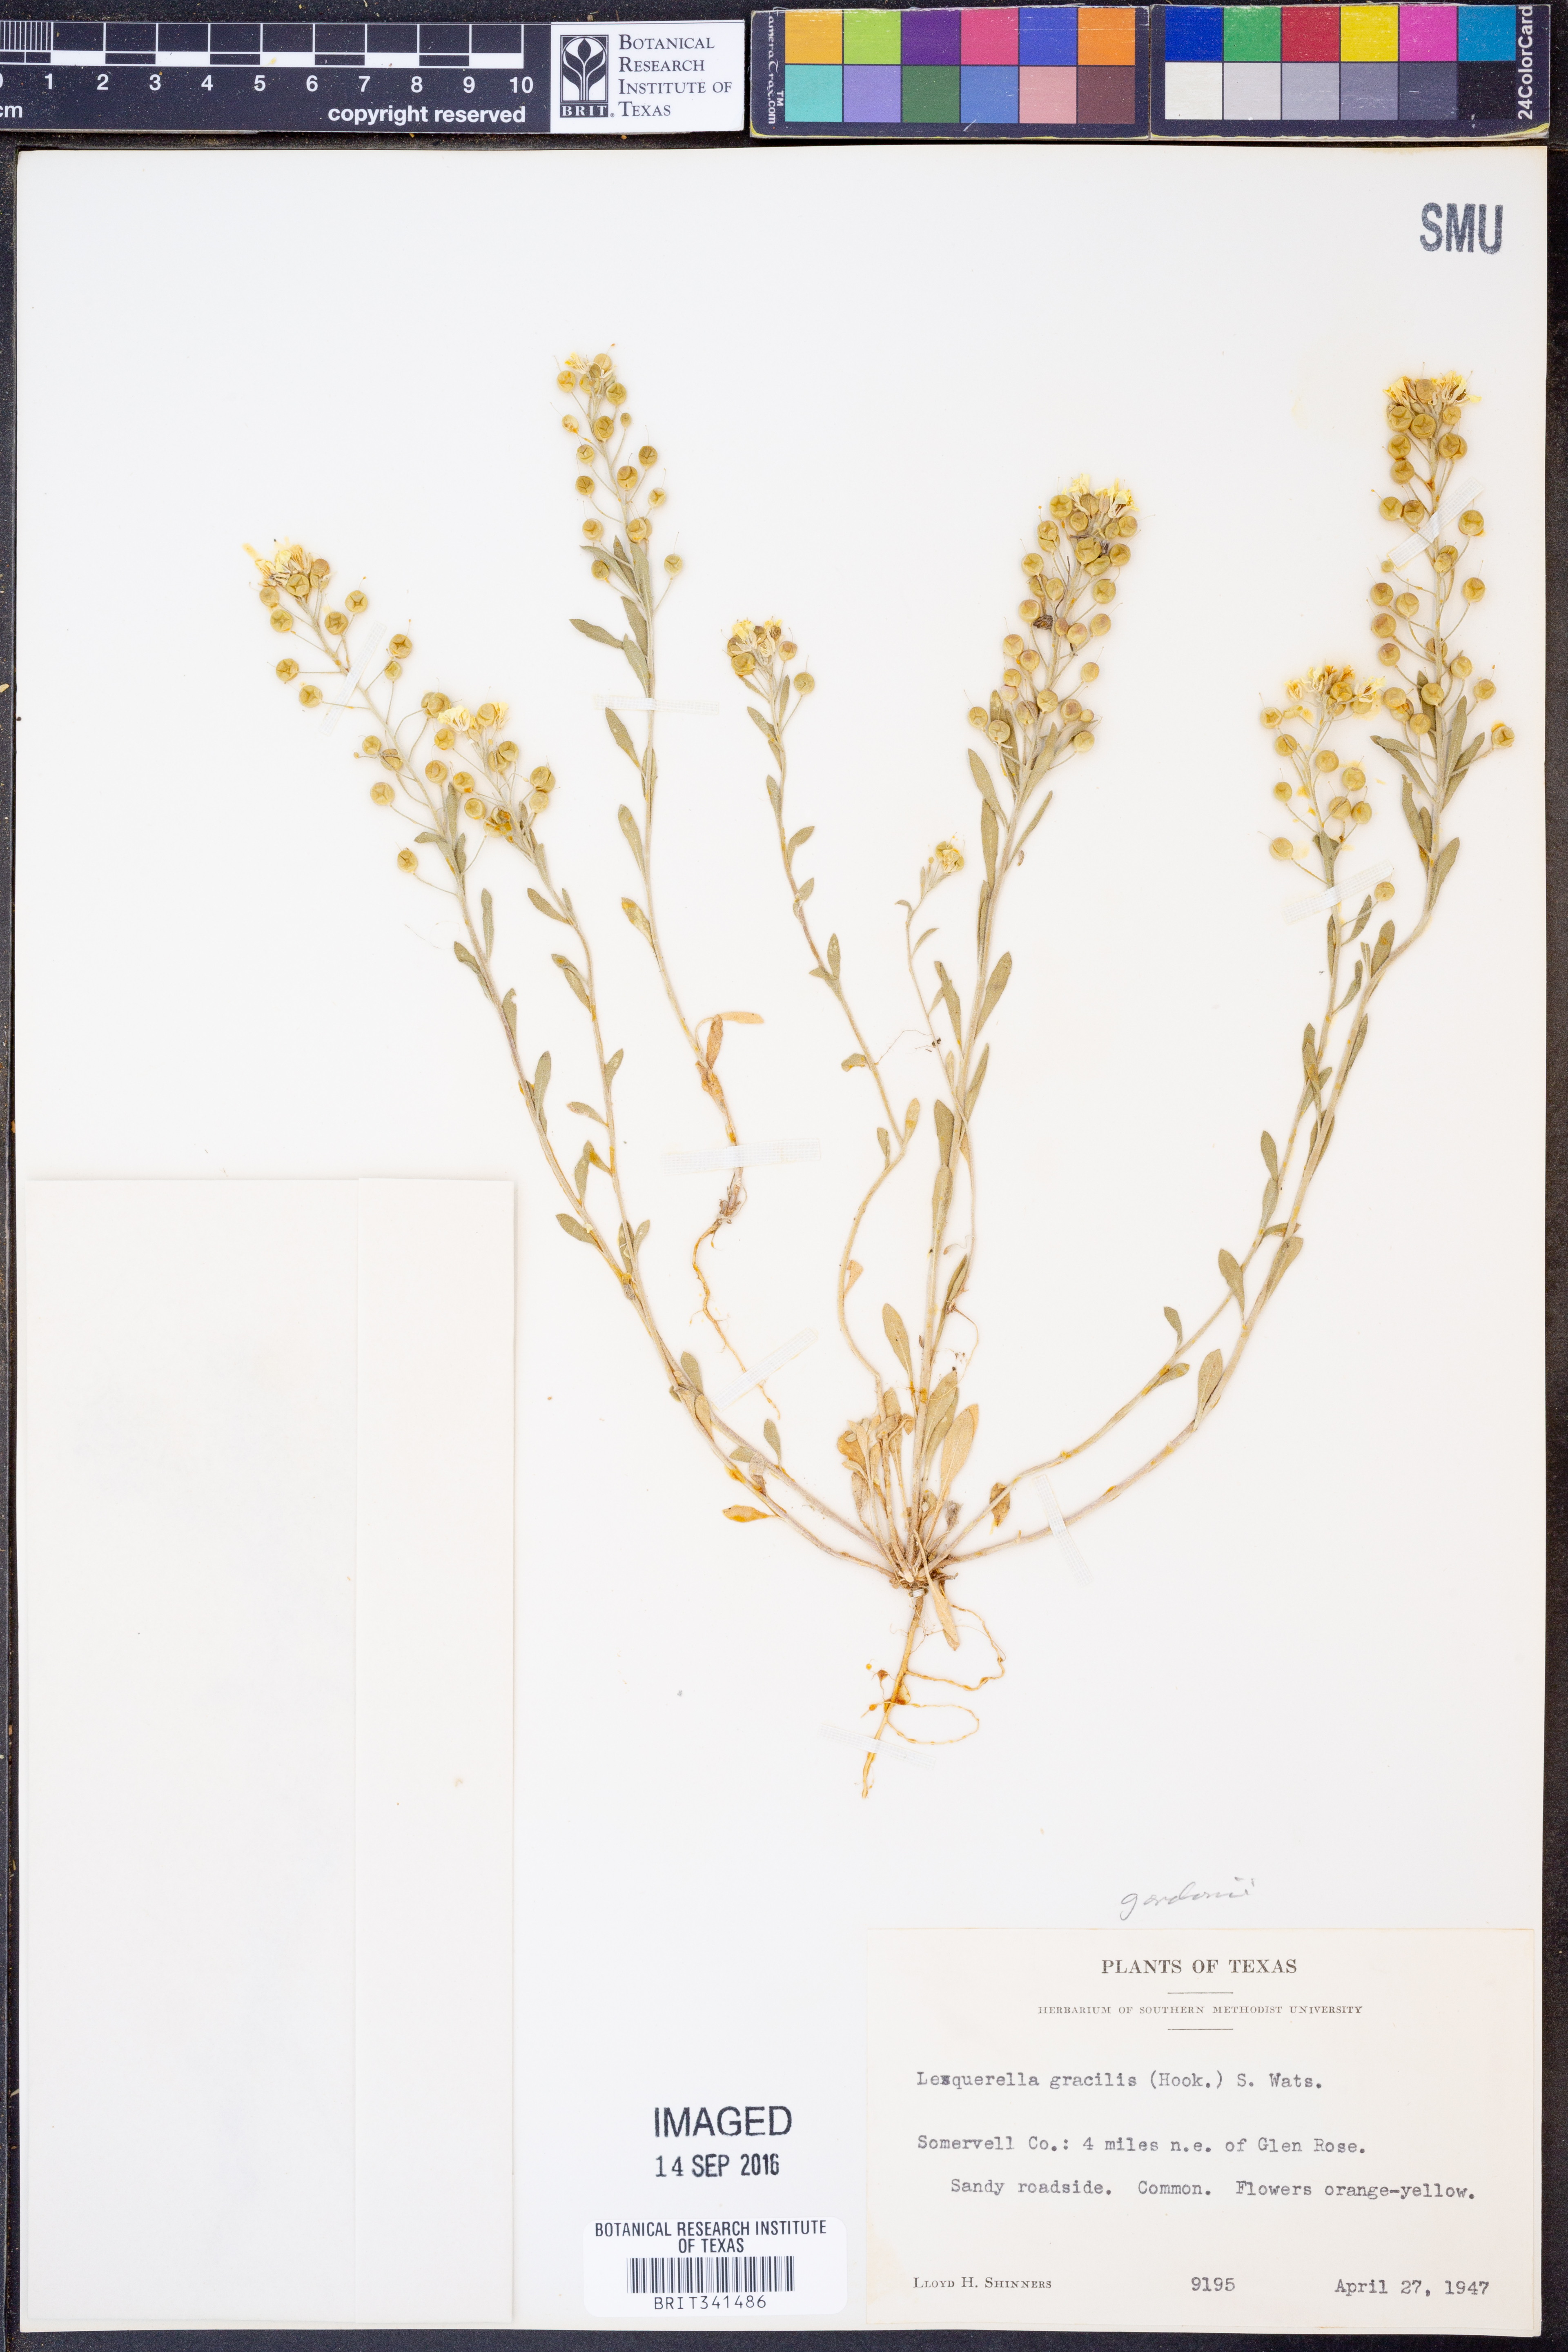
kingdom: Plantae
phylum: Tracheophyta
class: Magnoliopsida
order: Brassicales
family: Brassicaceae
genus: Physaria
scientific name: Physaria gordonii
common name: Gordon's bladderpod
